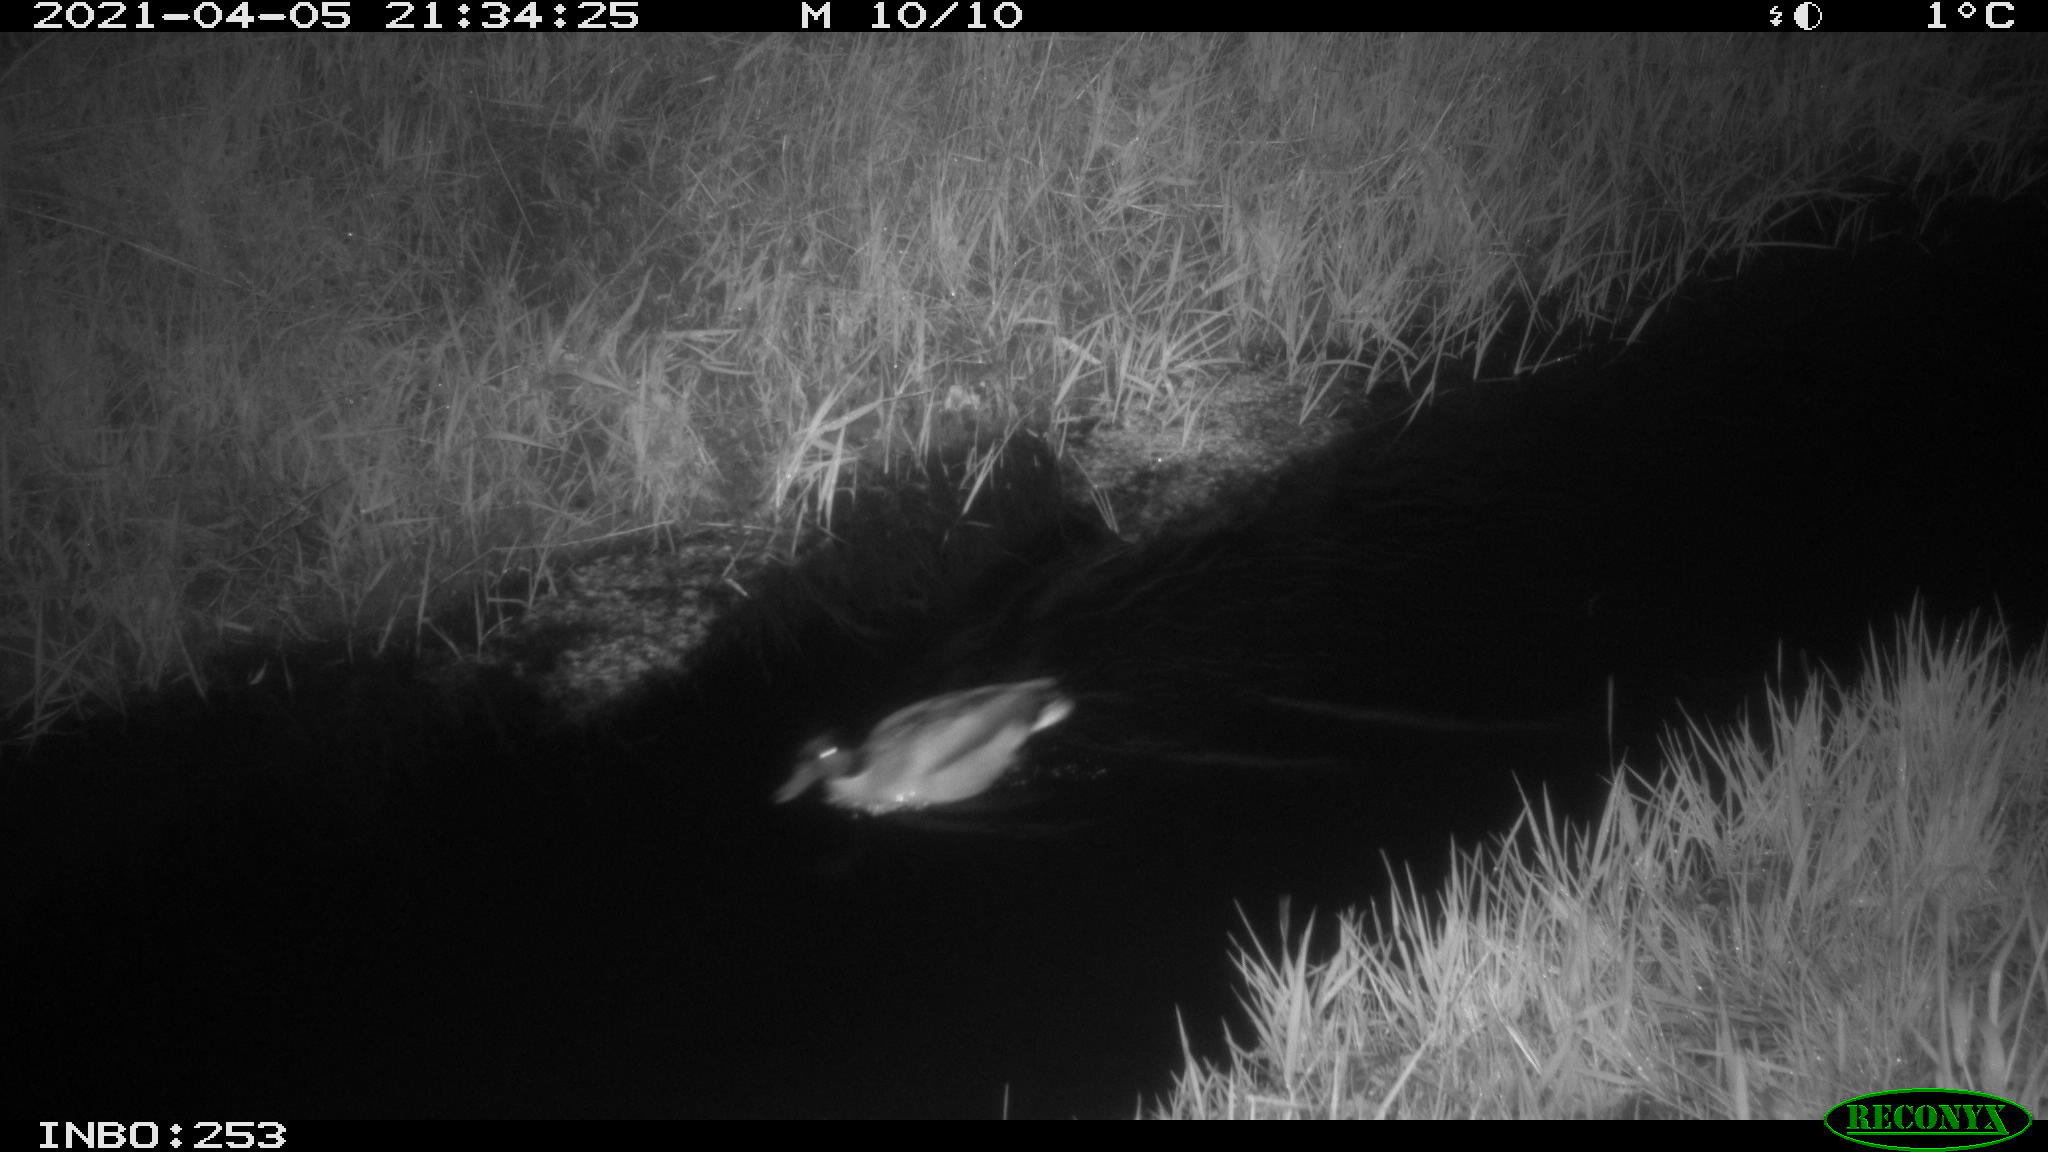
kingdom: Animalia
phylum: Chordata
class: Aves
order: Anseriformes
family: Anatidae
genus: Anas
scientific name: Anas platyrhynchos
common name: Mallard
